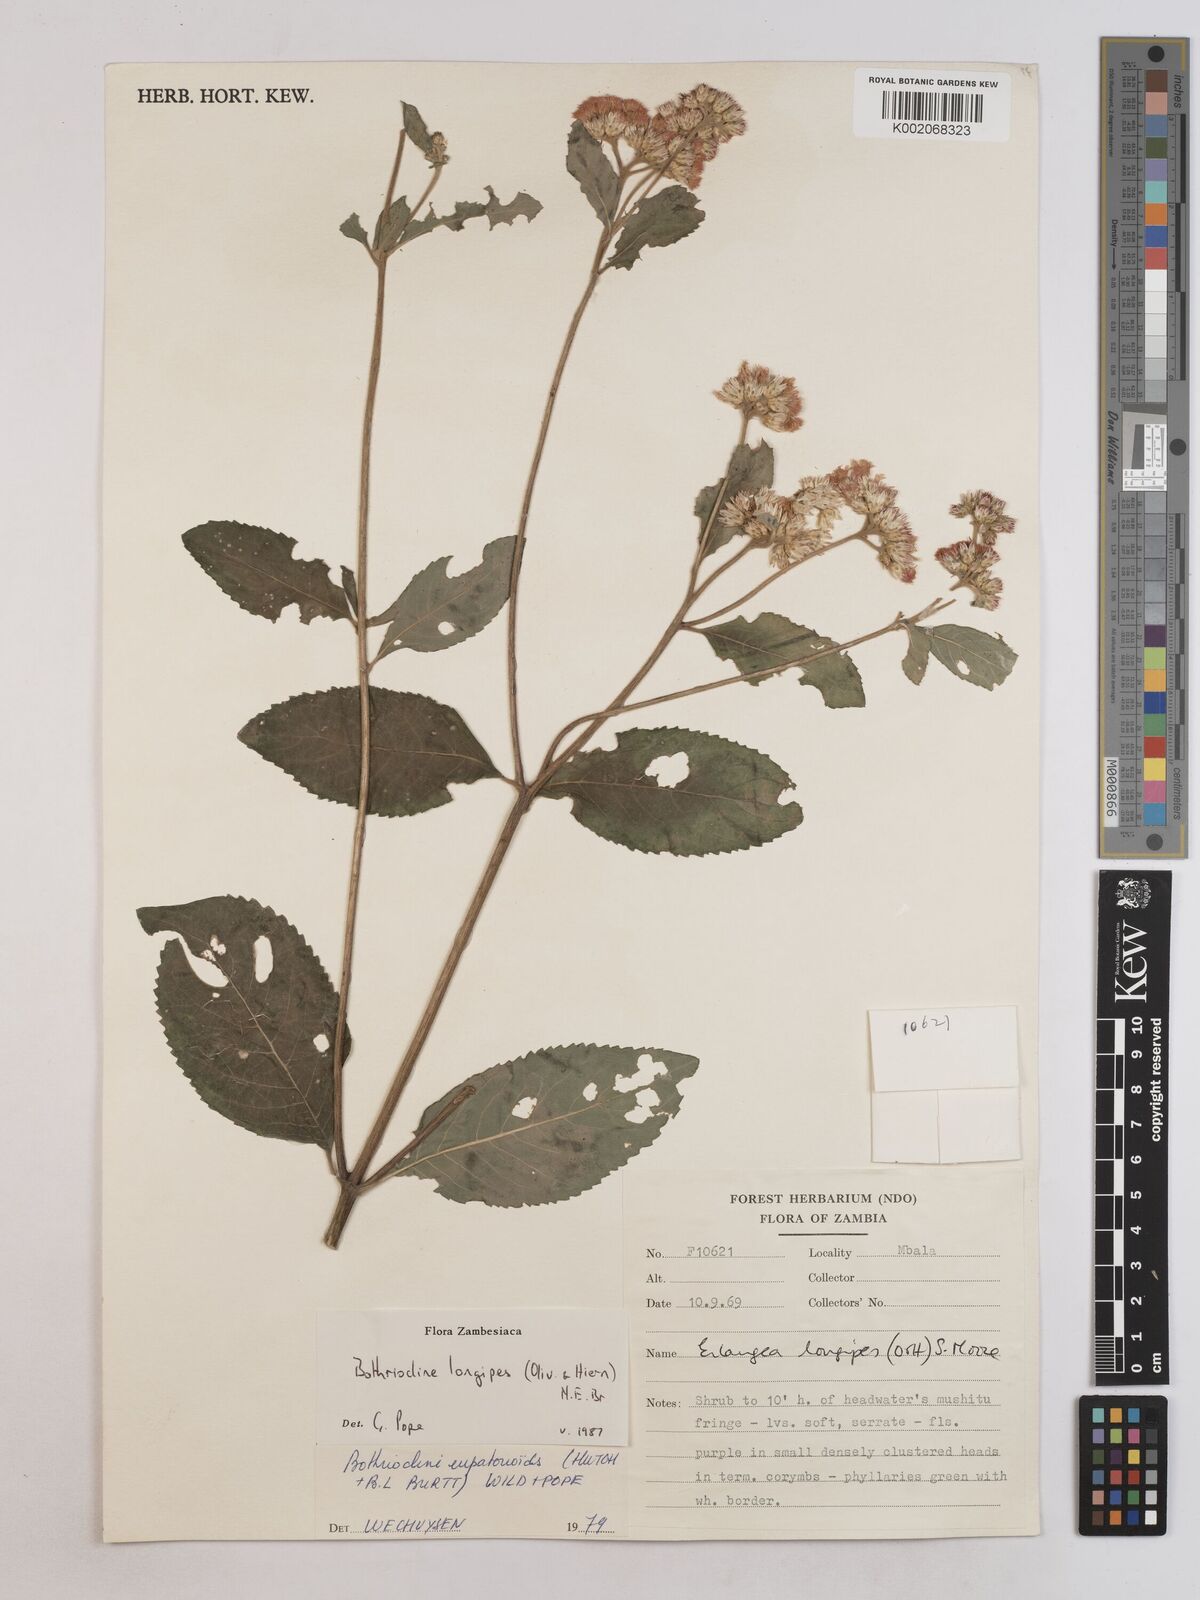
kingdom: Plantae
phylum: Tracheophyta
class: Magnoliopsida
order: Asterales
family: Asteraceae
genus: Bothriocline
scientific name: Bothriocline longipes
